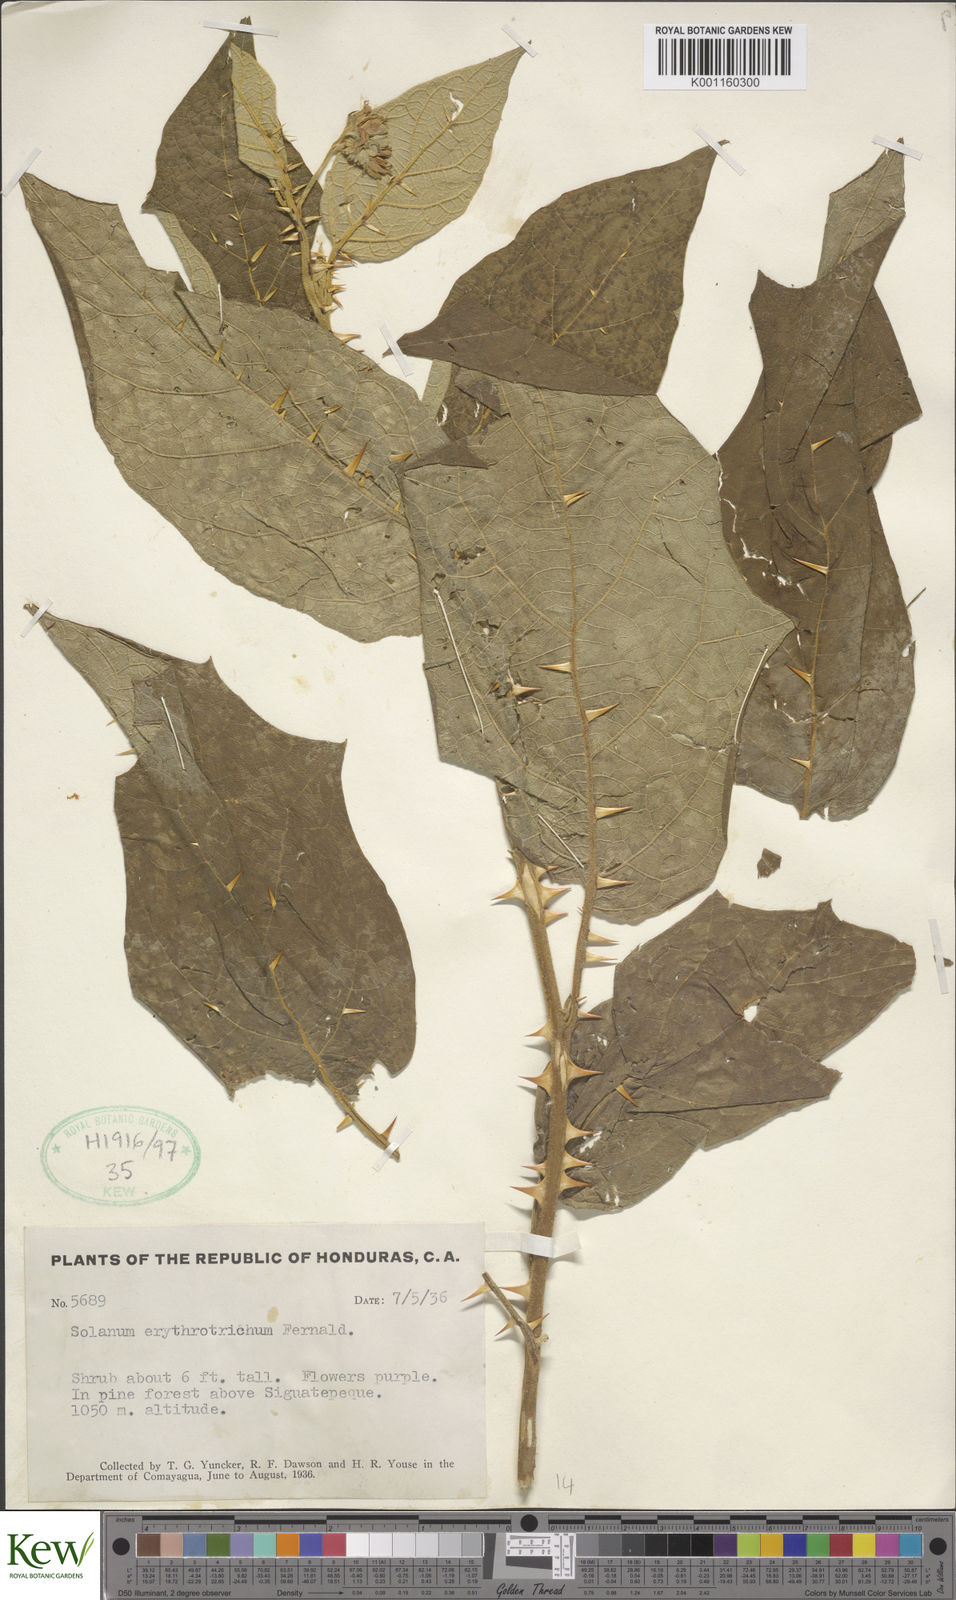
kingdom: Plantae
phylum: Tracheophyta
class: Magnoliopsida
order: Solanales
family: Solanaceae
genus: Solanum
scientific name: Solanum erythrotrichum
